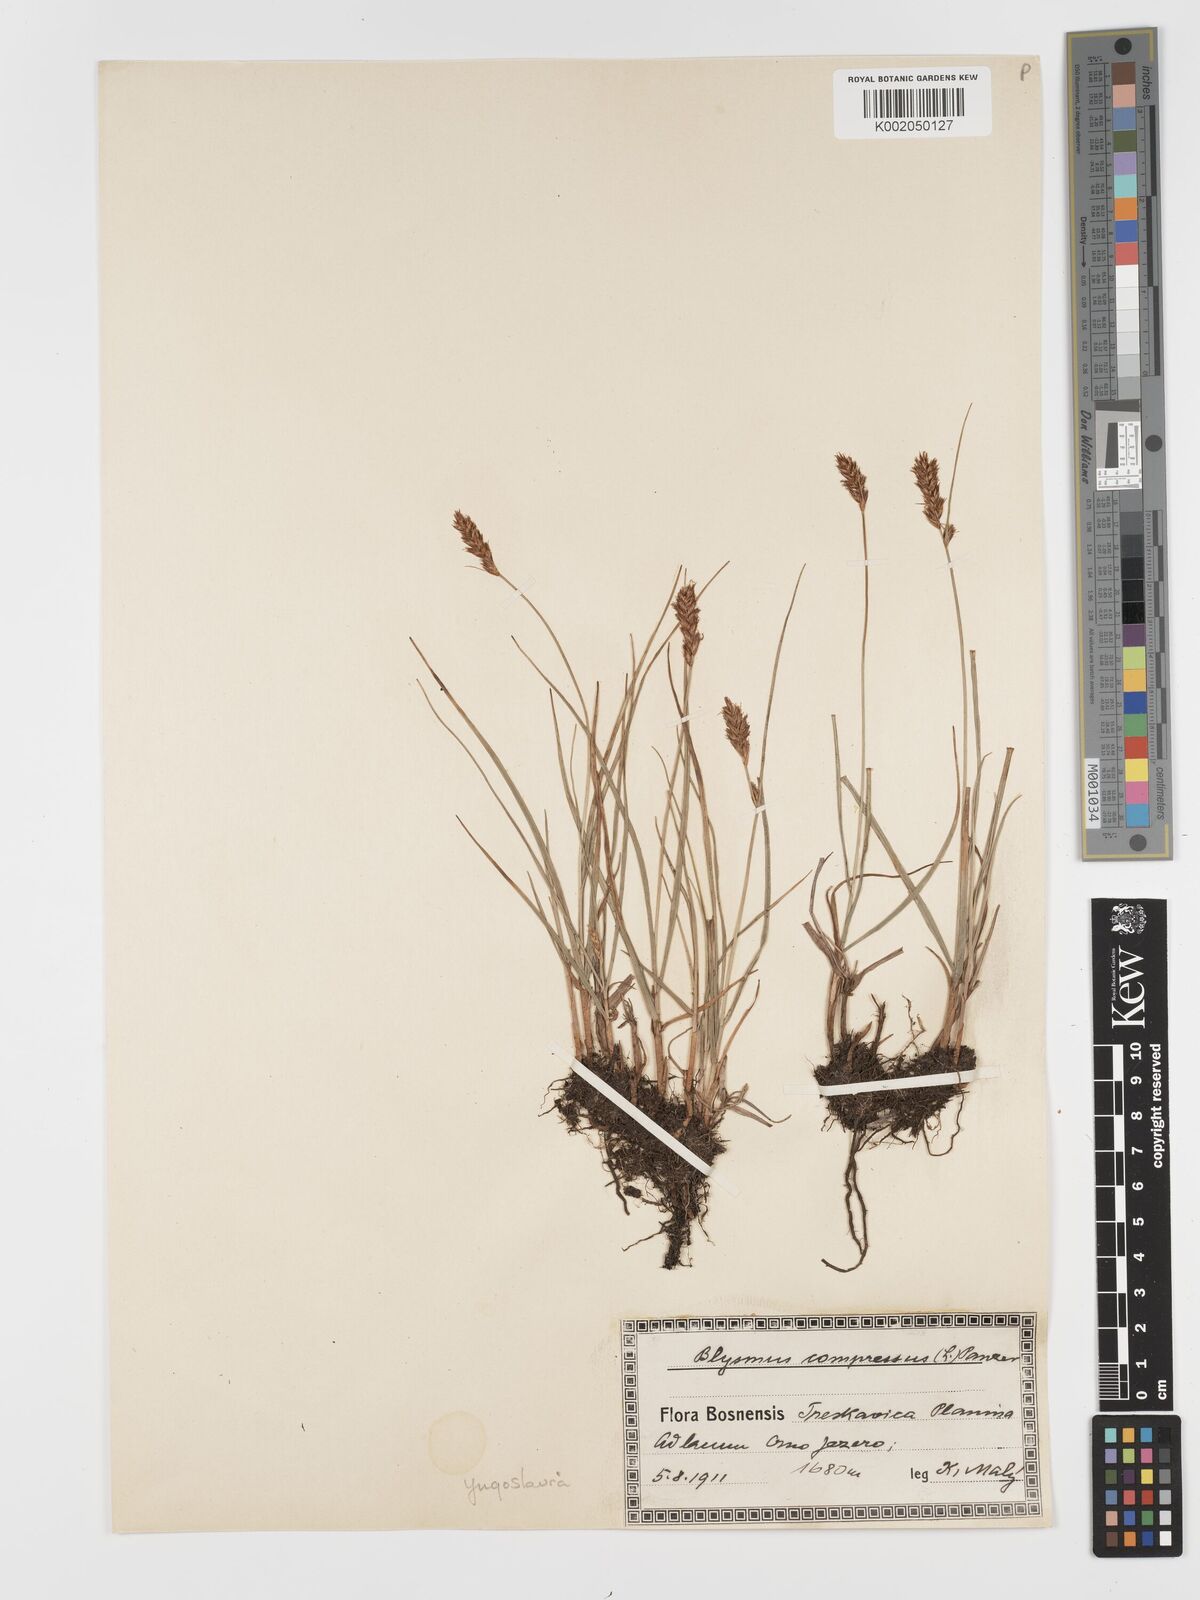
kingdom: Plantae
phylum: Tracheophyta
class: Liliopsida
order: Poales
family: Cyperaceae
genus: Blysmus
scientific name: Blysmus compressus
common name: Flat-sedge
